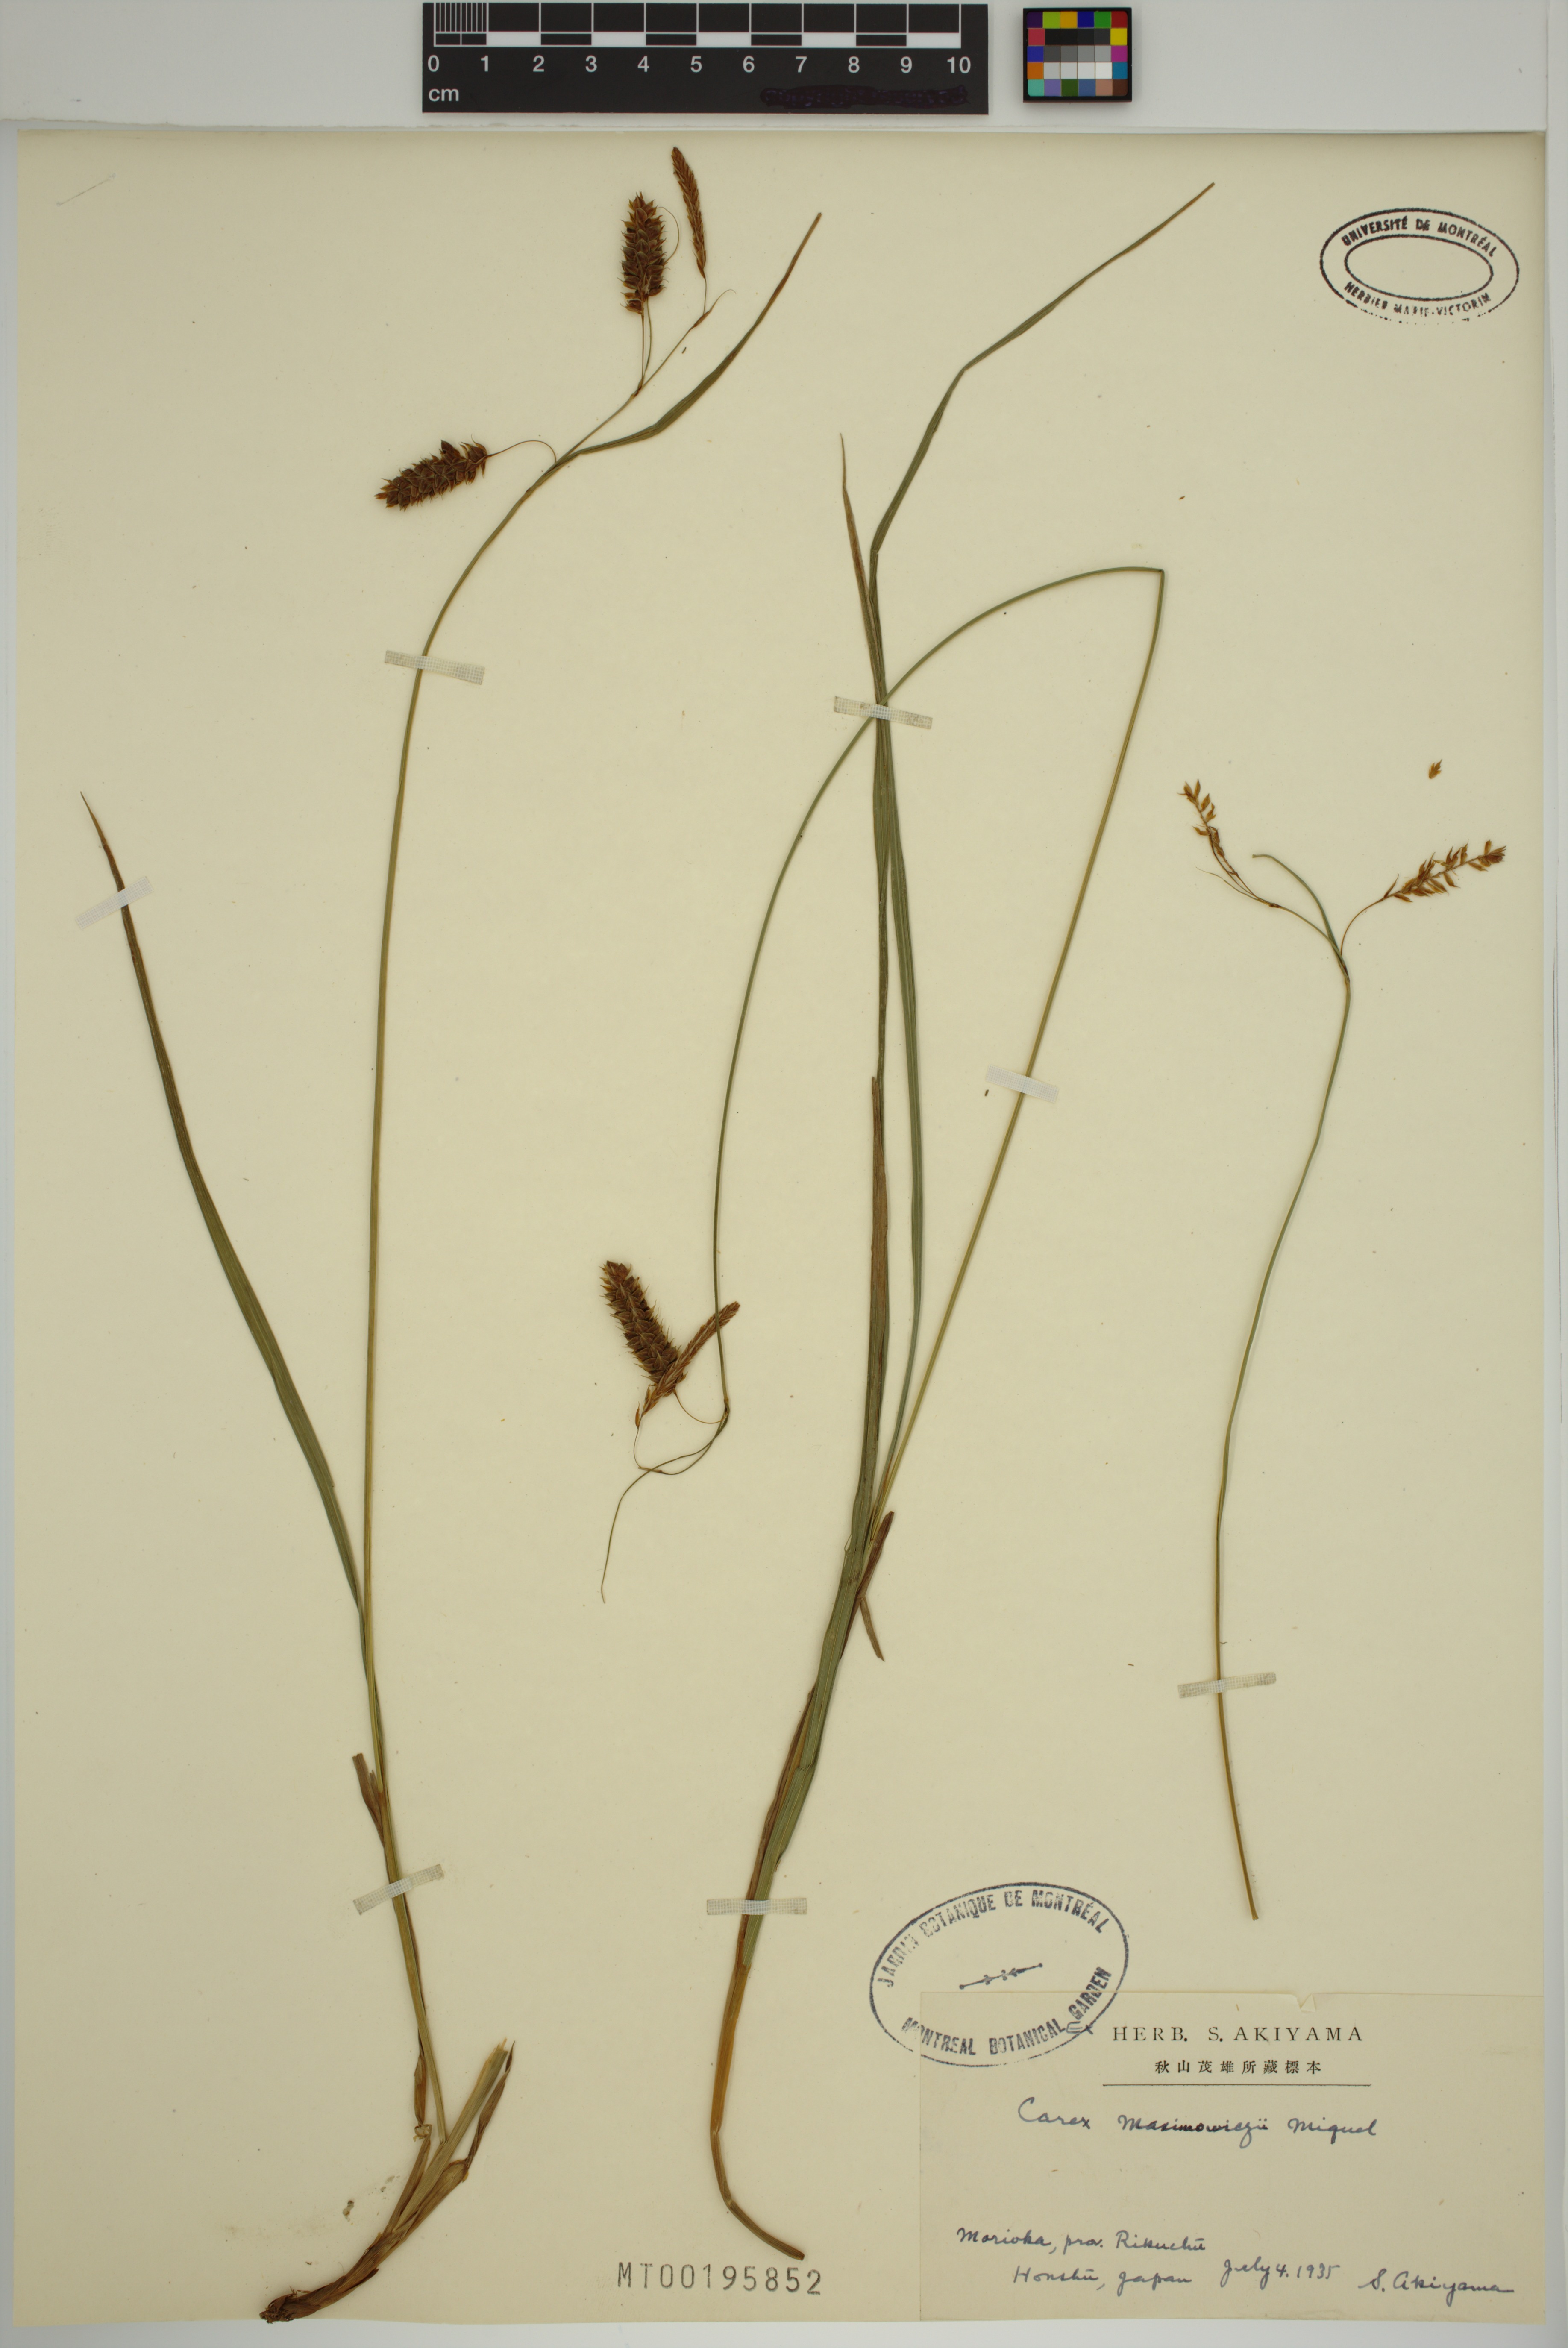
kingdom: Plantae
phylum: Tracheophyta
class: Liliopsida
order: Poales
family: Cyperaceae
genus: Carex
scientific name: Carex maximowiczii
